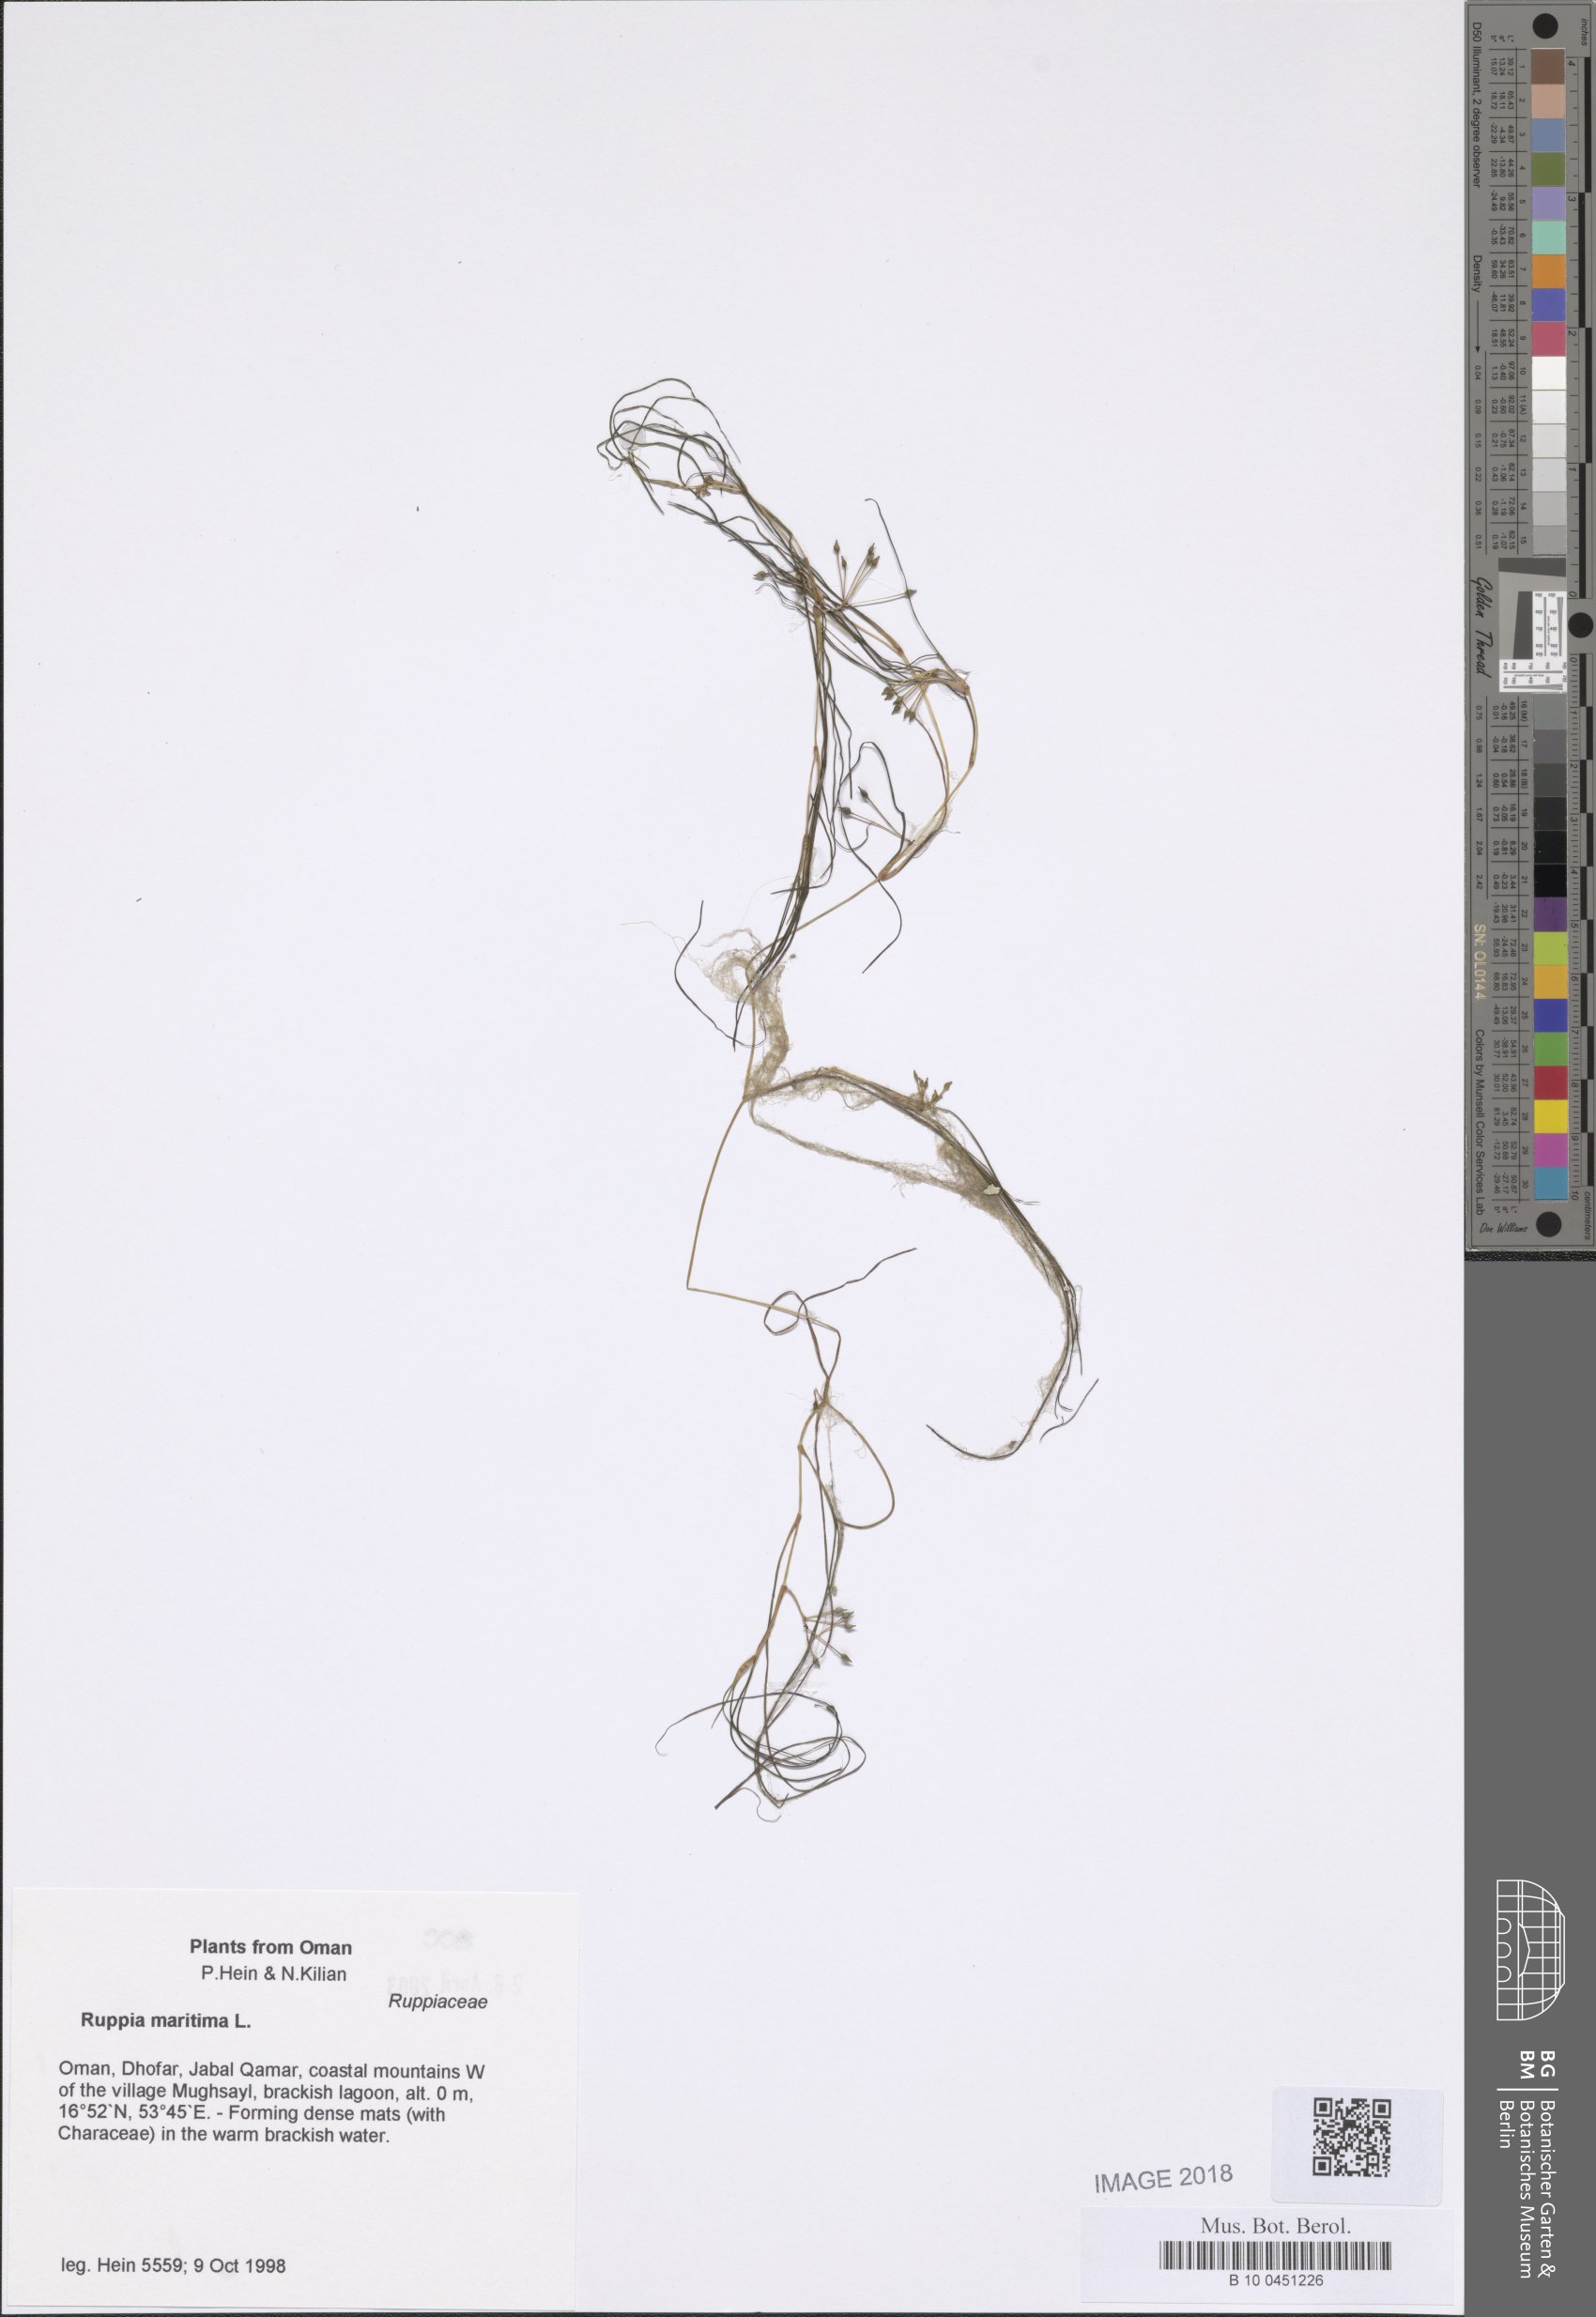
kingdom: Plantae
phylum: Tracheophyta
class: Liliopsida
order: Alismatales
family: Ruppiaceae
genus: Ruppia
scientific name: Ruppia maritima
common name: Beaked tasselweed
